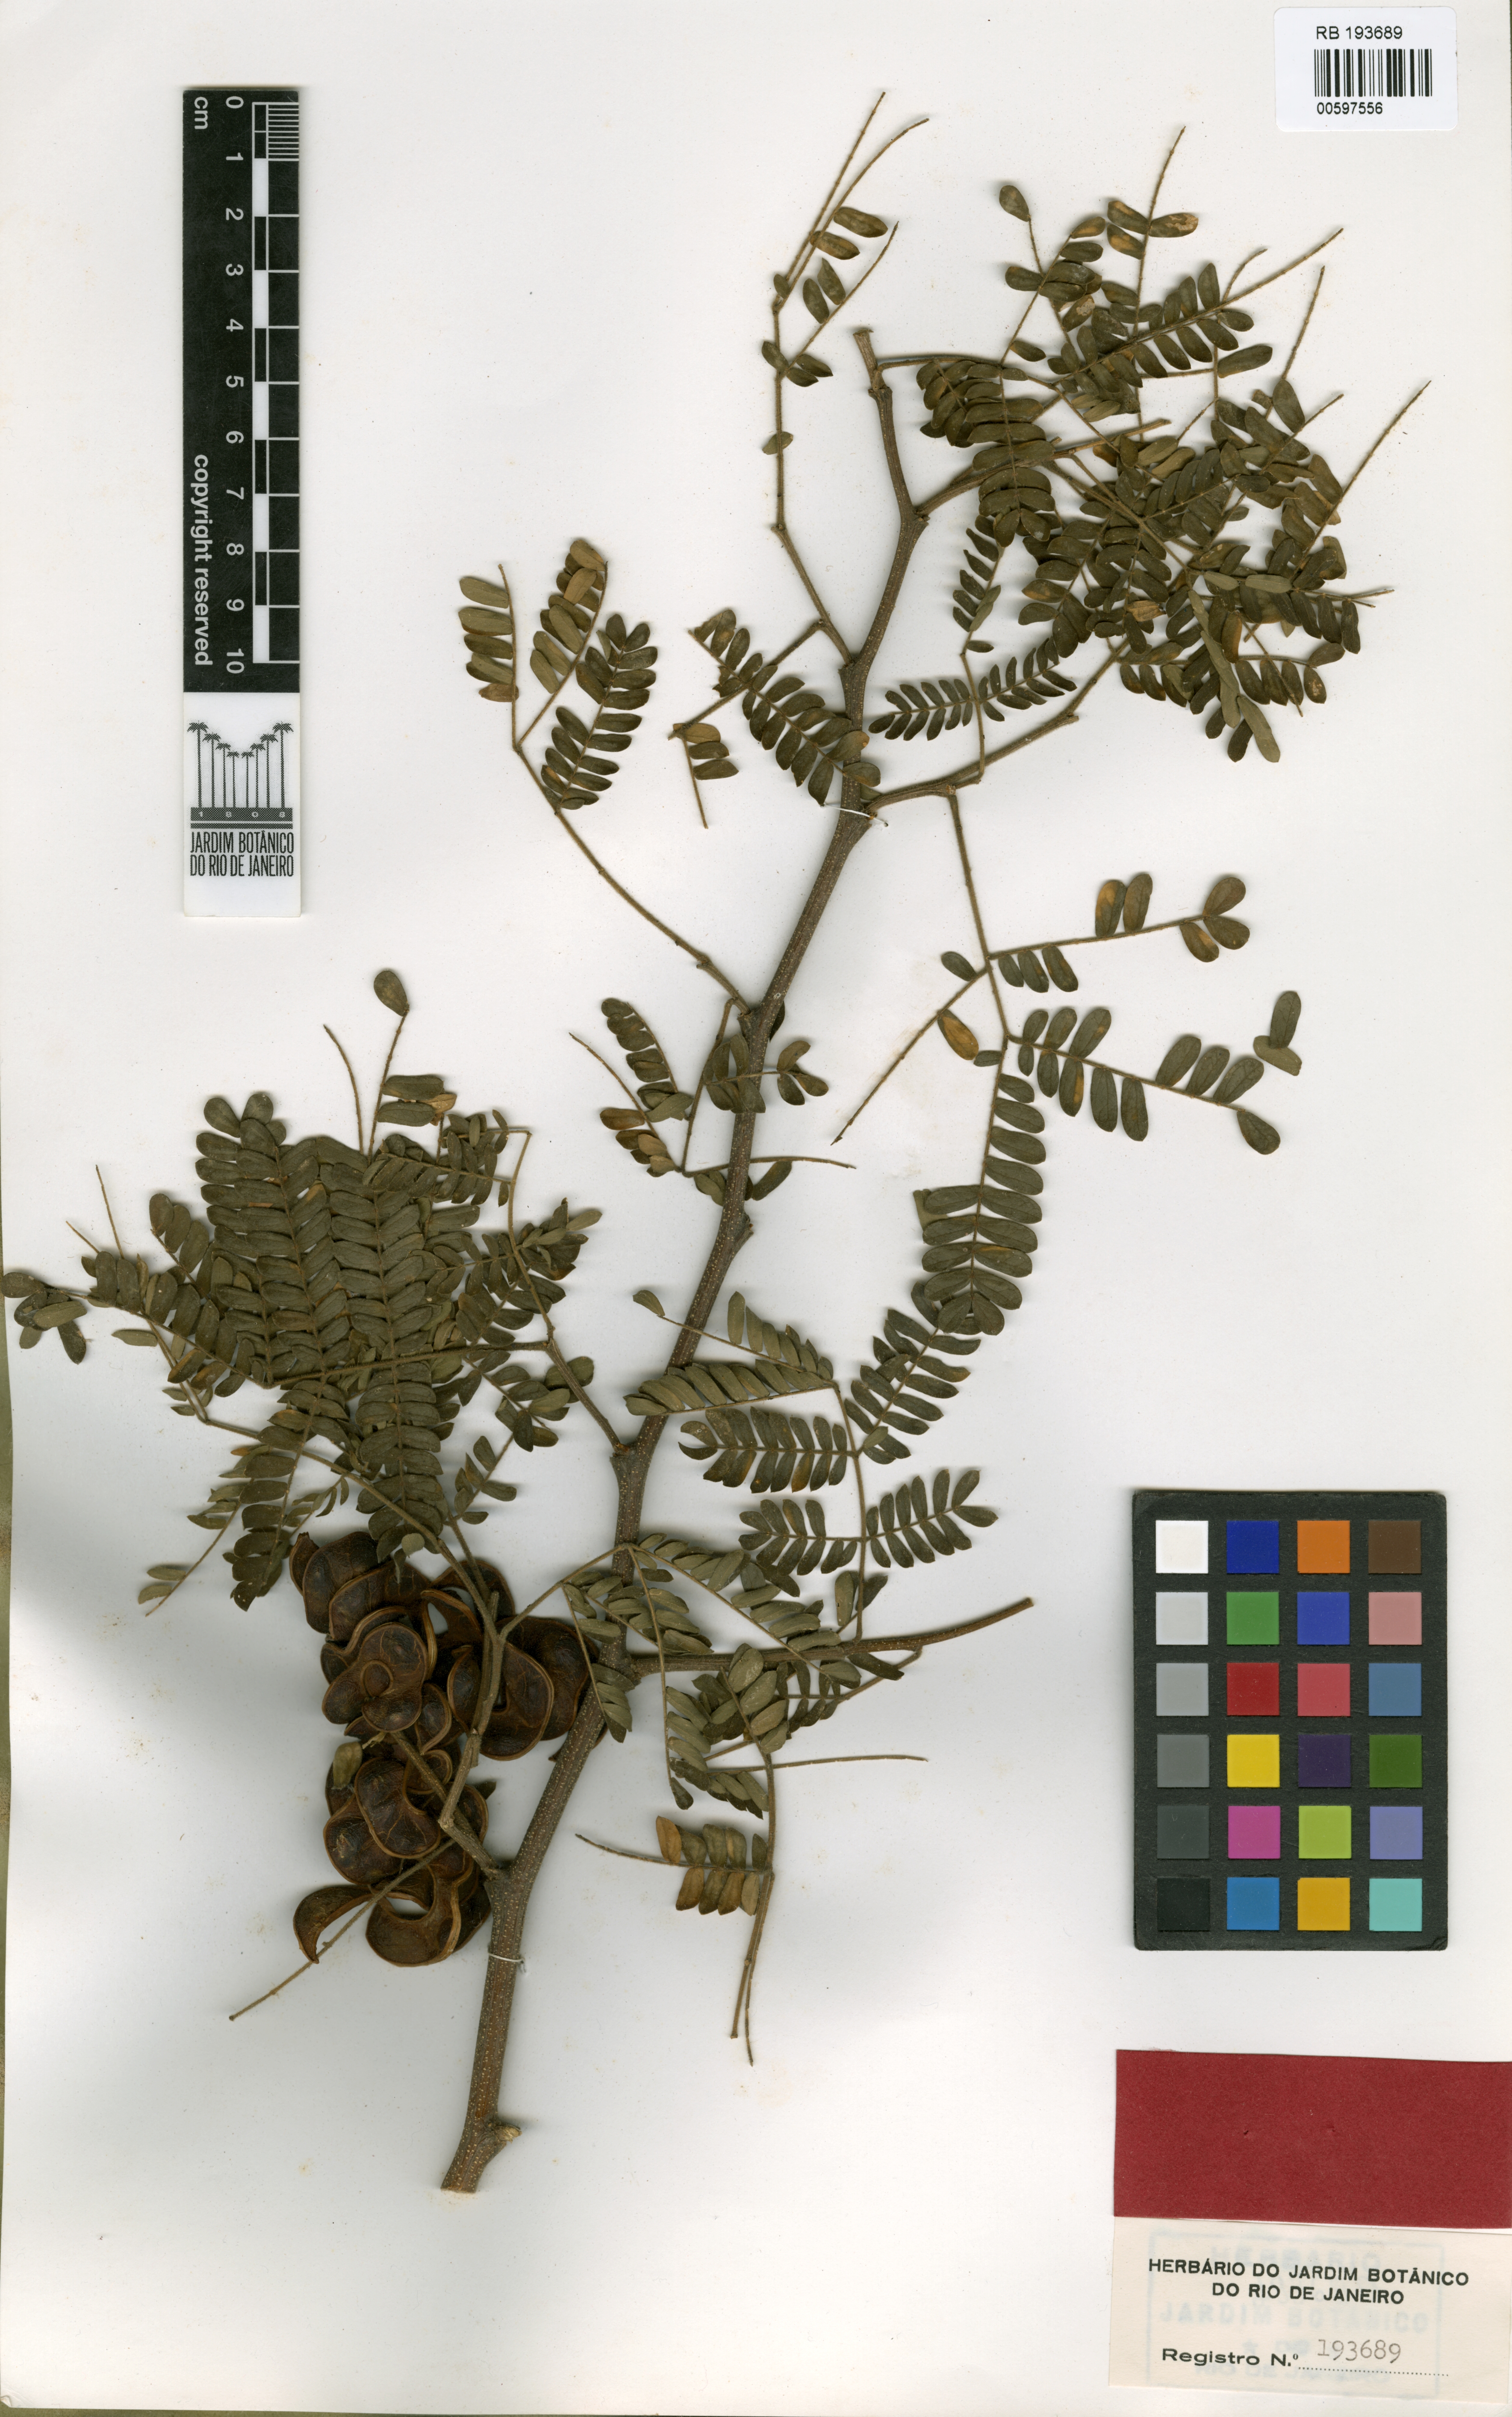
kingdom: Plantae
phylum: Tracheophyta
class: Magnoliopsida
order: Fabales
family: Fabaceae
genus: Chloroleucon
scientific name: Chloroleucon tenuiflorum
